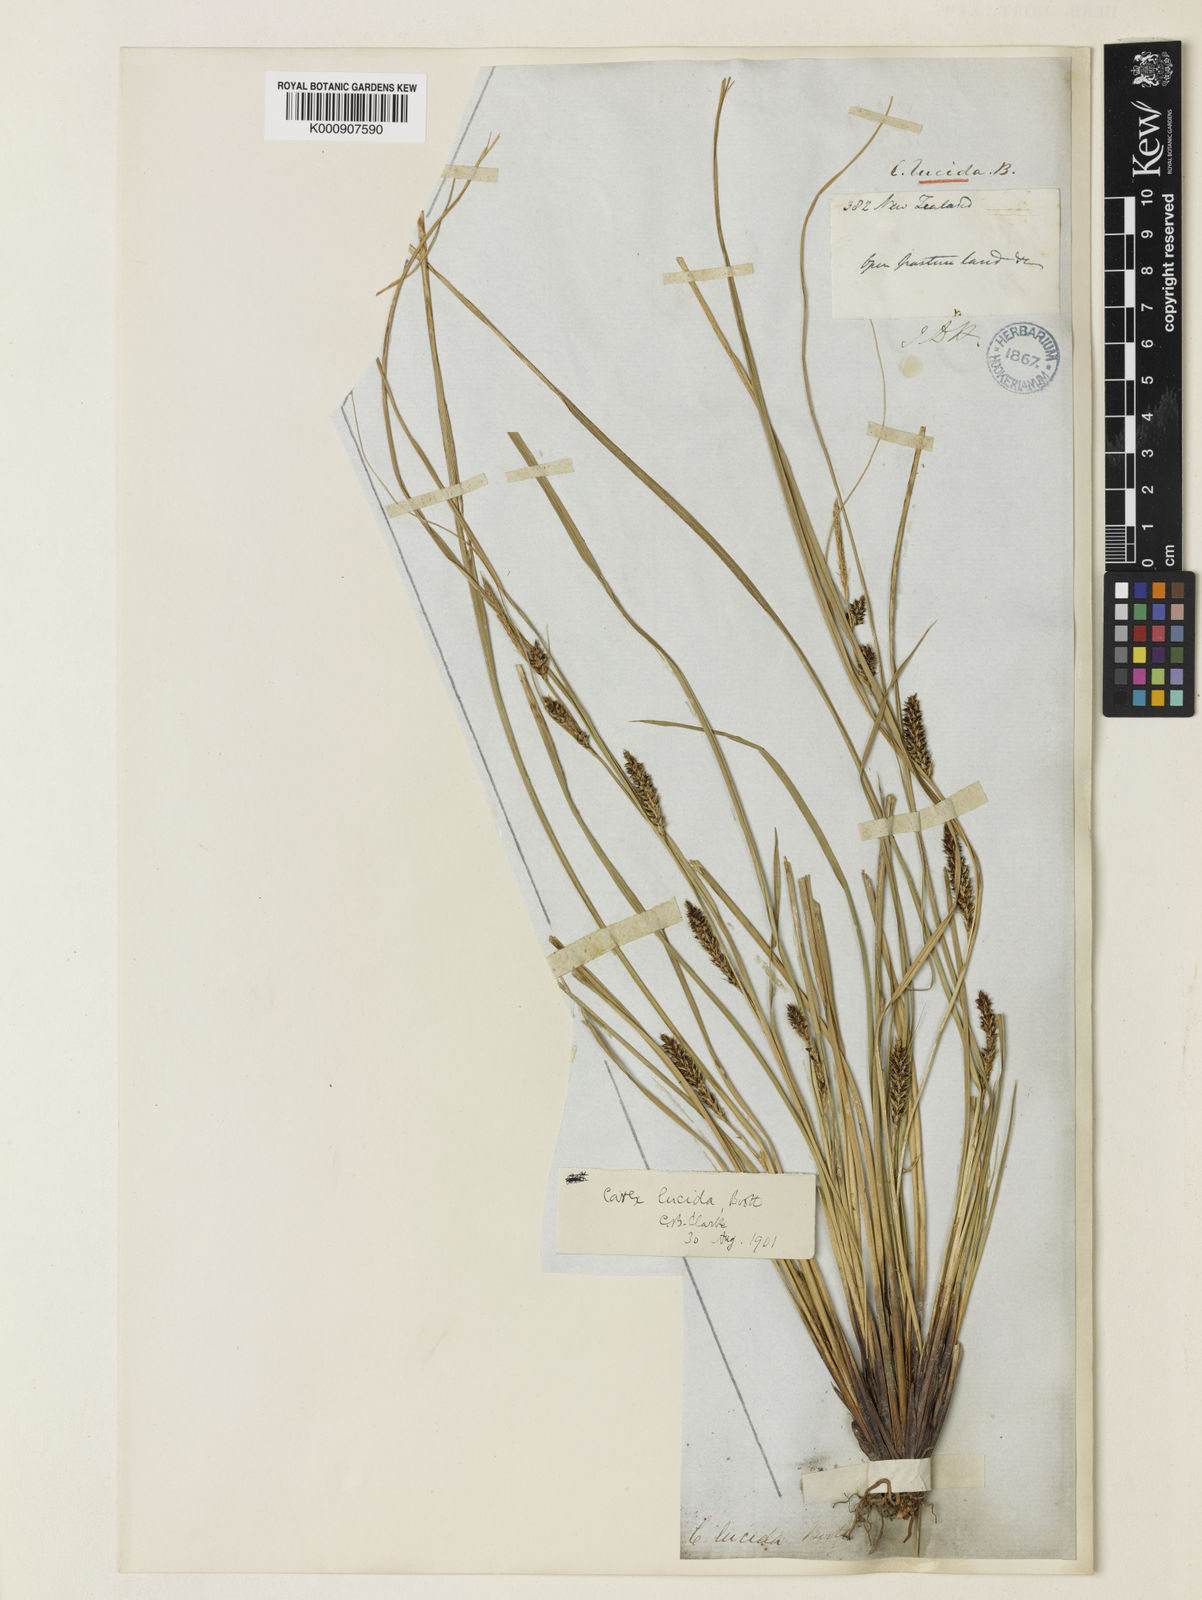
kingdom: Plantae
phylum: Tracheophyta
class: Liliopsida
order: Poales
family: Cyperaceae
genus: Carex
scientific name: Carex flagellifera
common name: Glen murray tussock
